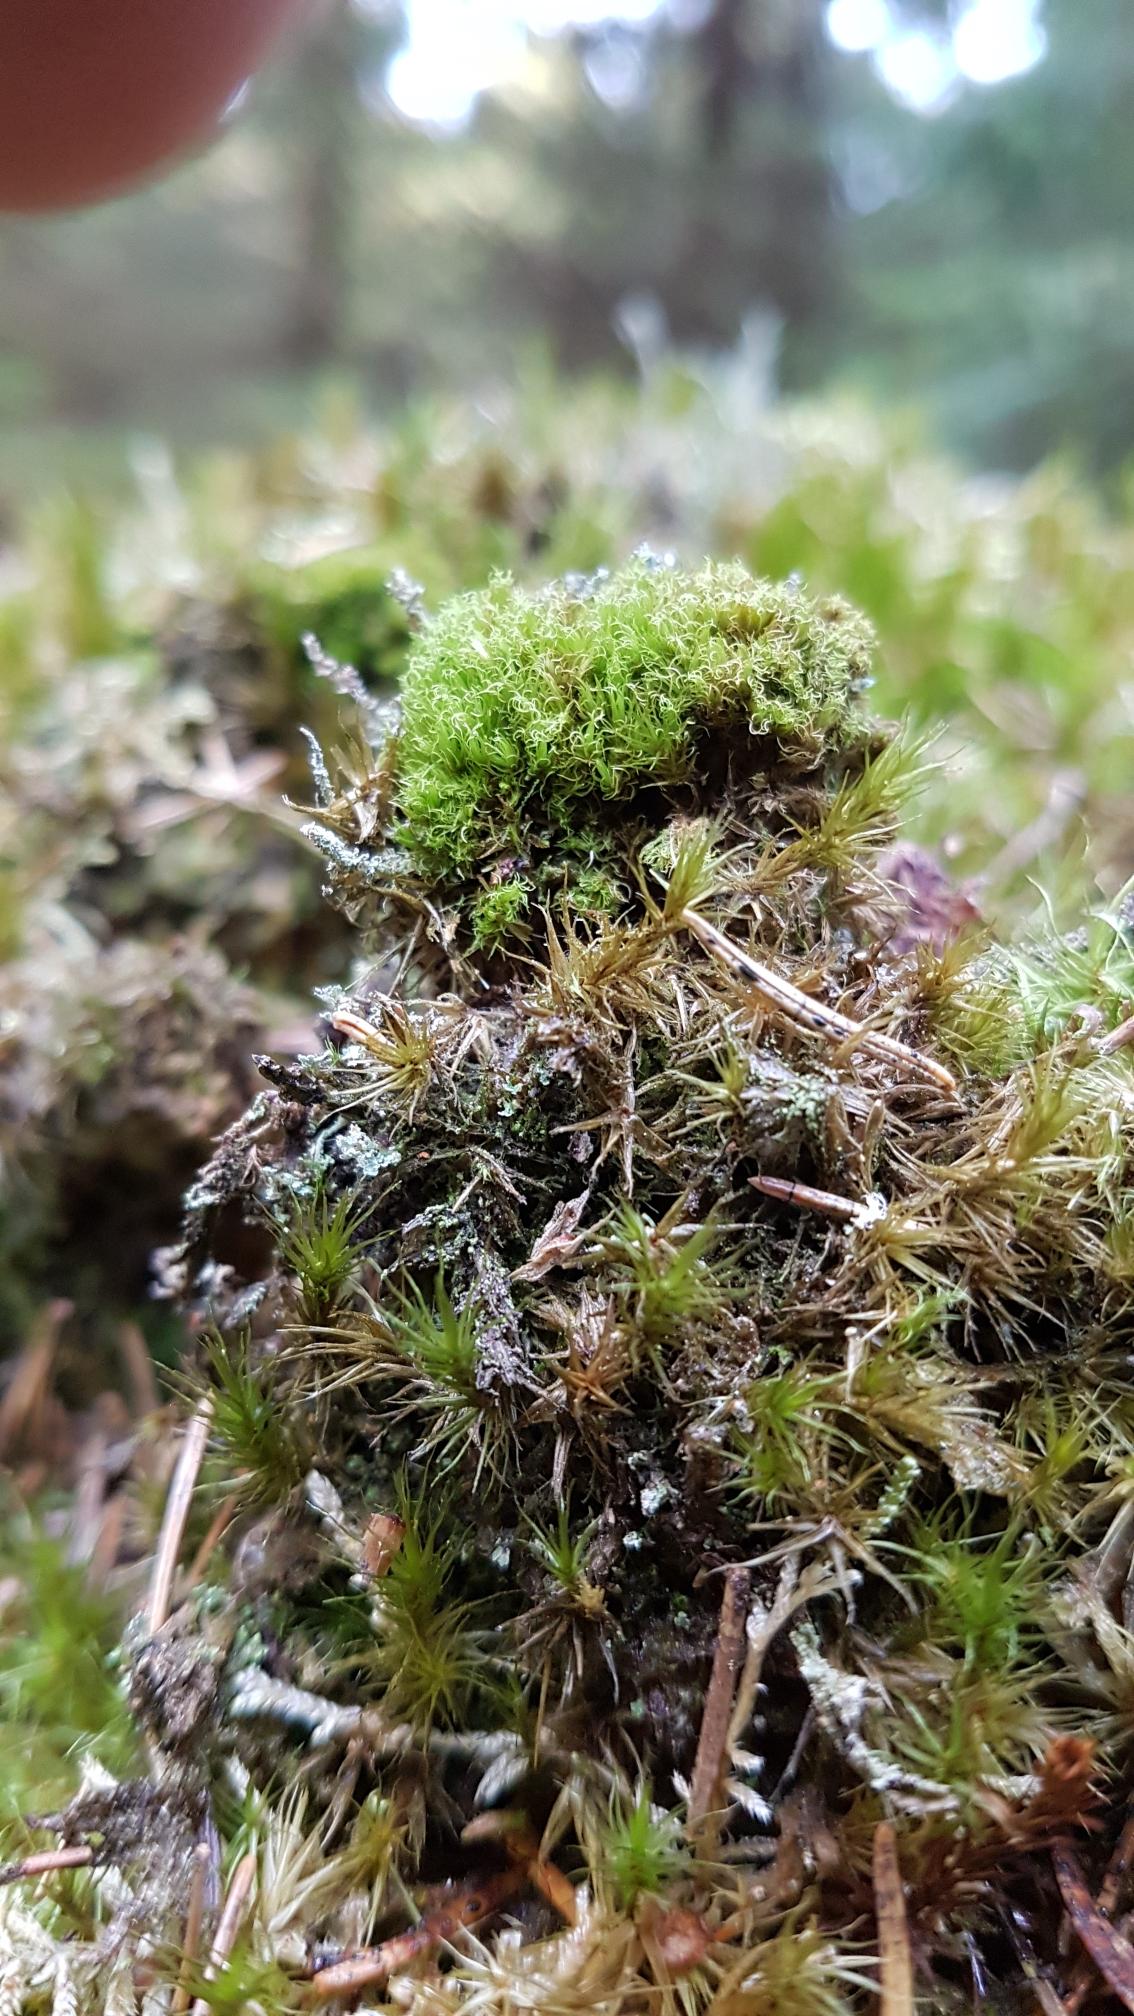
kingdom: Plantae
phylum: Bryophyta
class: Bryopsida
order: Dicranales
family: Dicranaceae
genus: Orthodicranum
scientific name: Orthodicranum montanum
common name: Tæt tyndvinge
